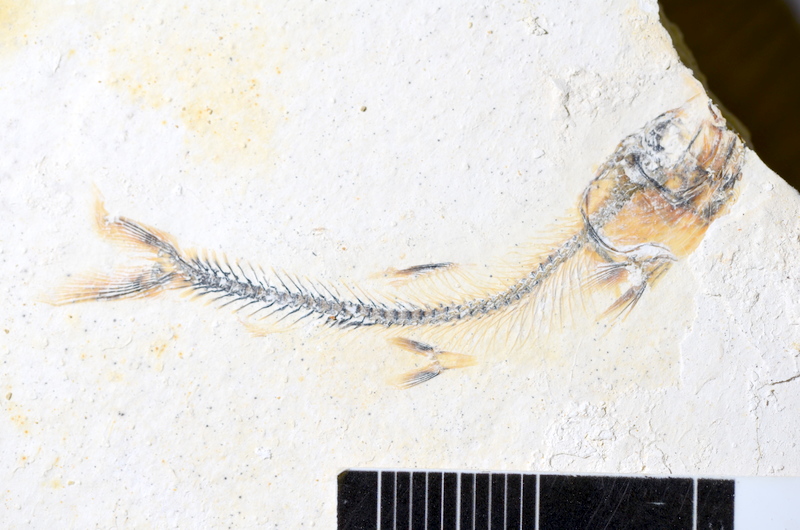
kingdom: Animalia
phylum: Chordata
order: Salmoniformes
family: Orthogonikleithridae
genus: Orthogonikleithrus
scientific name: Orthogonikleithrus hoelli
